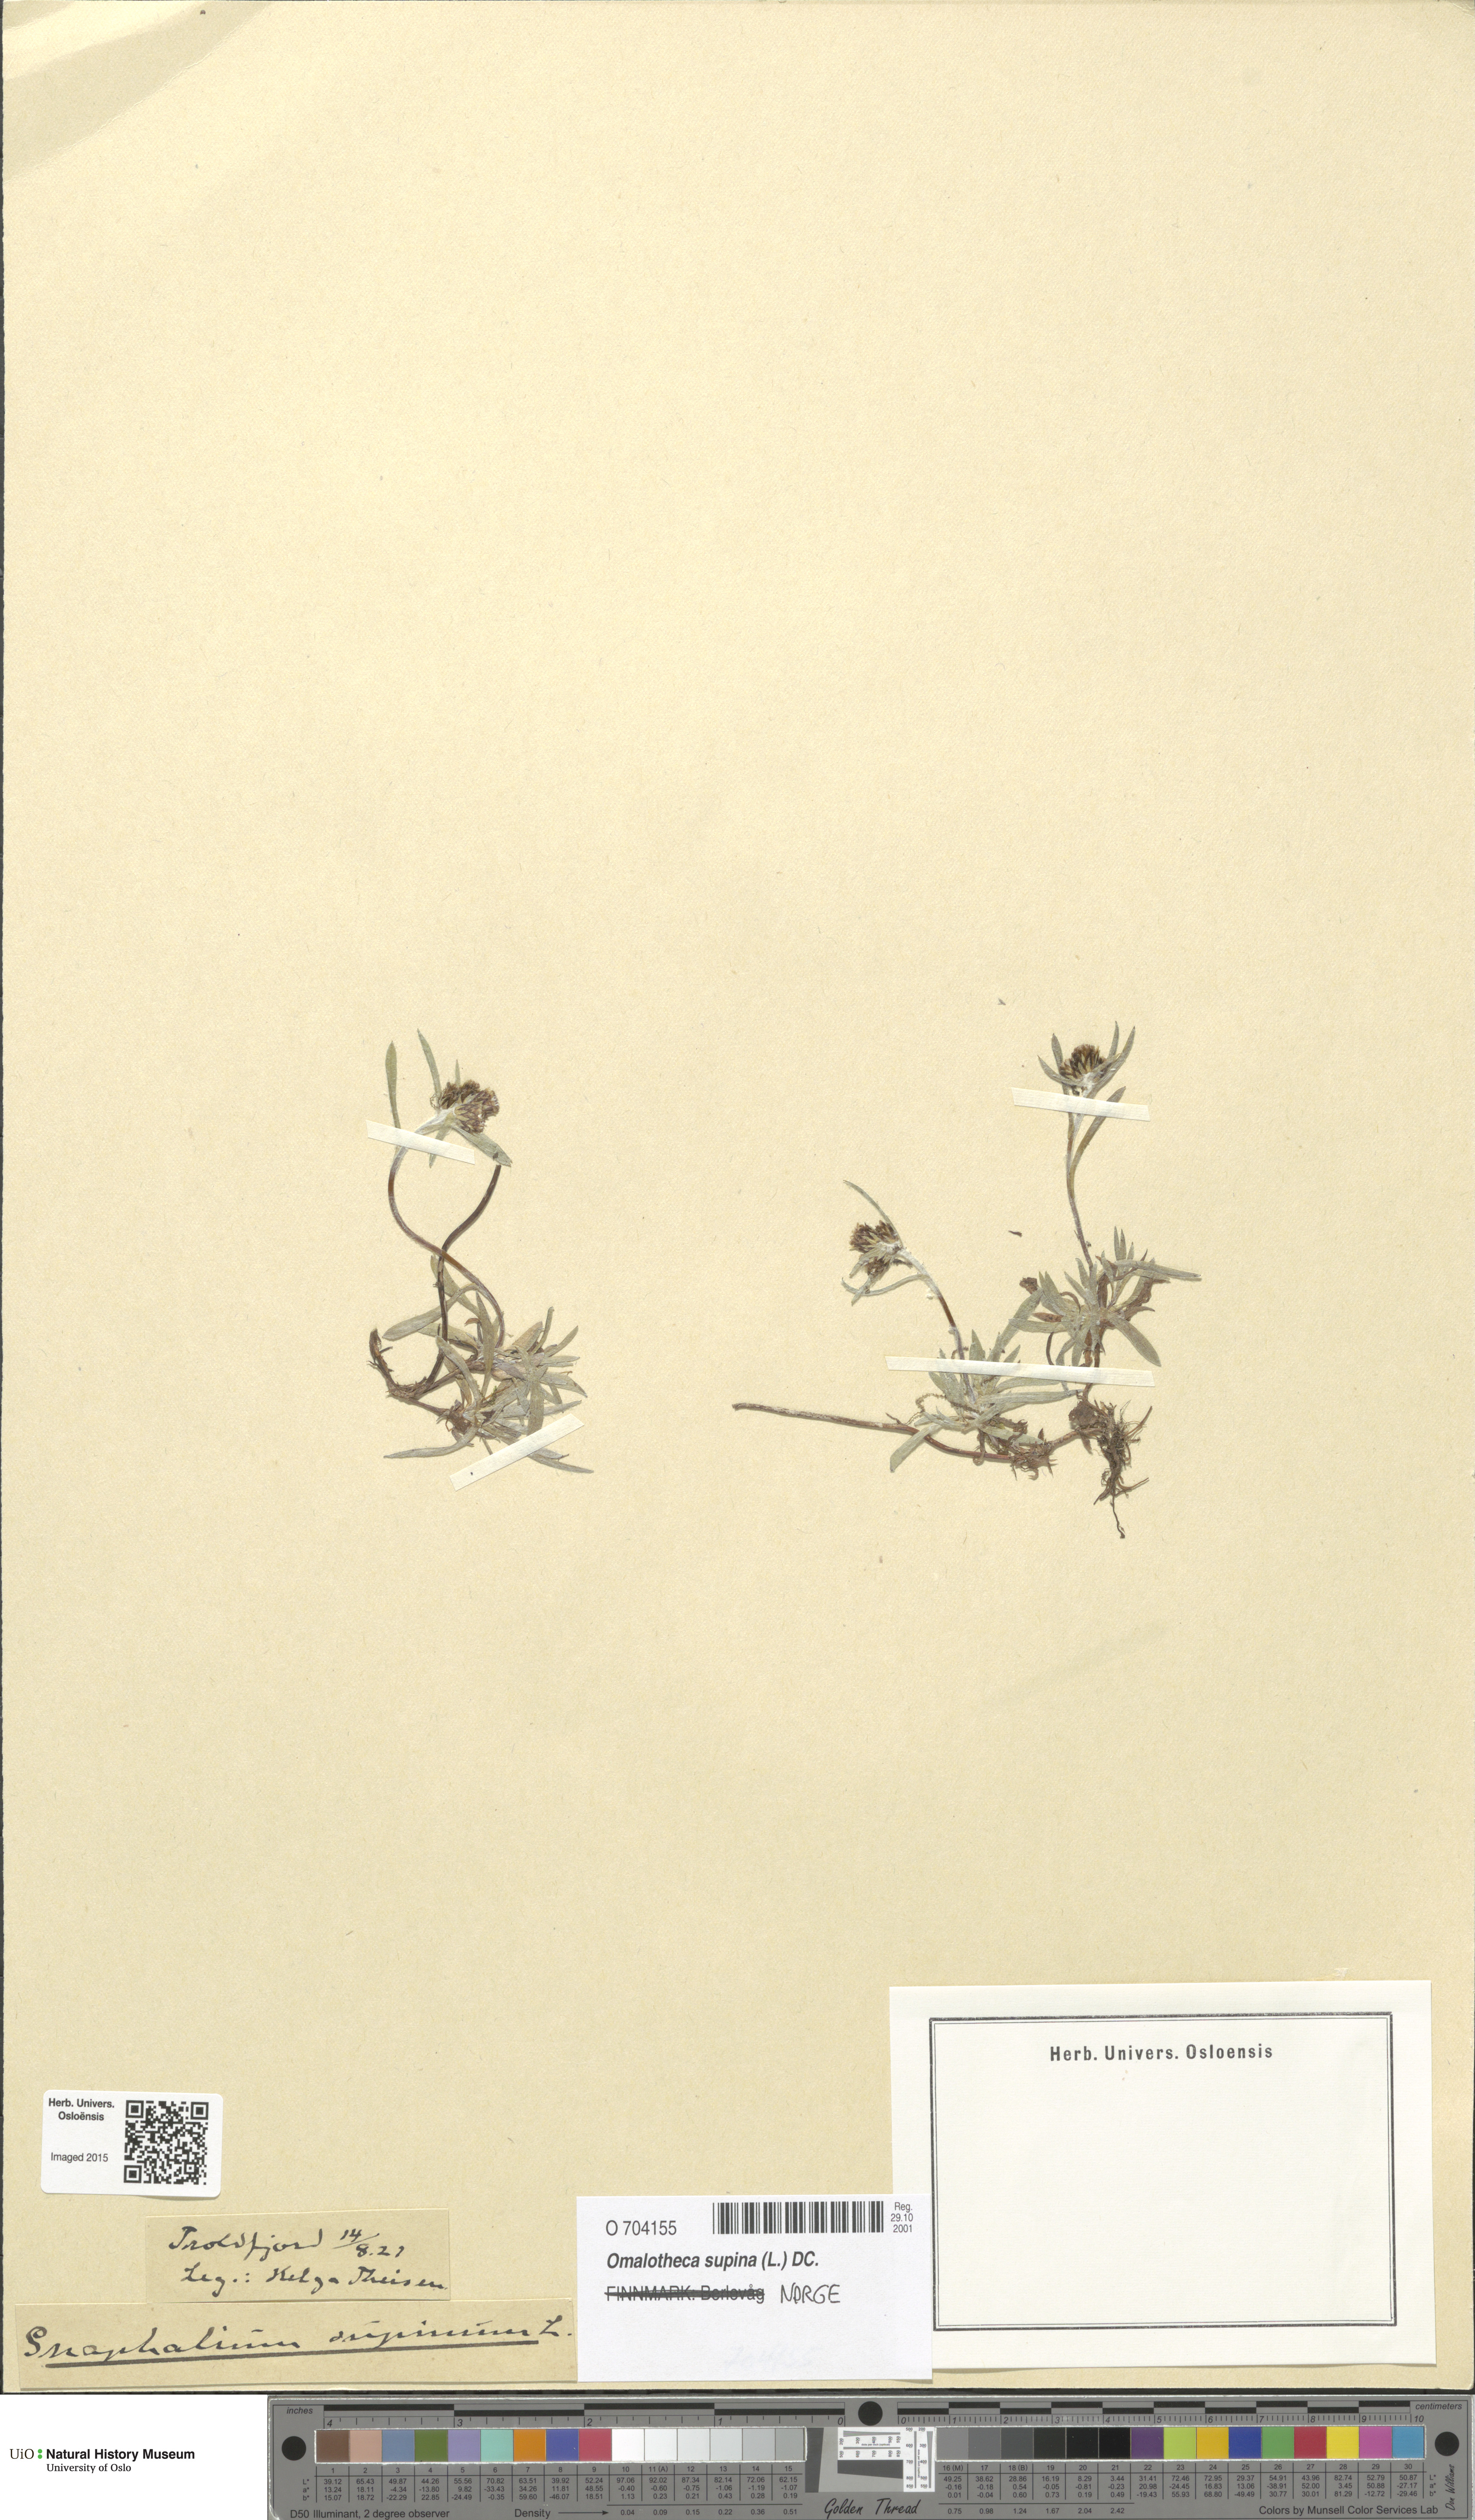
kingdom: Plantae
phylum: Tracheophyta
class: Magnoliopsida
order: Asterales
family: Asteraceae
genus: Omalotheca
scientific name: Omalotheca supina
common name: Alpine arctic-cudweed
